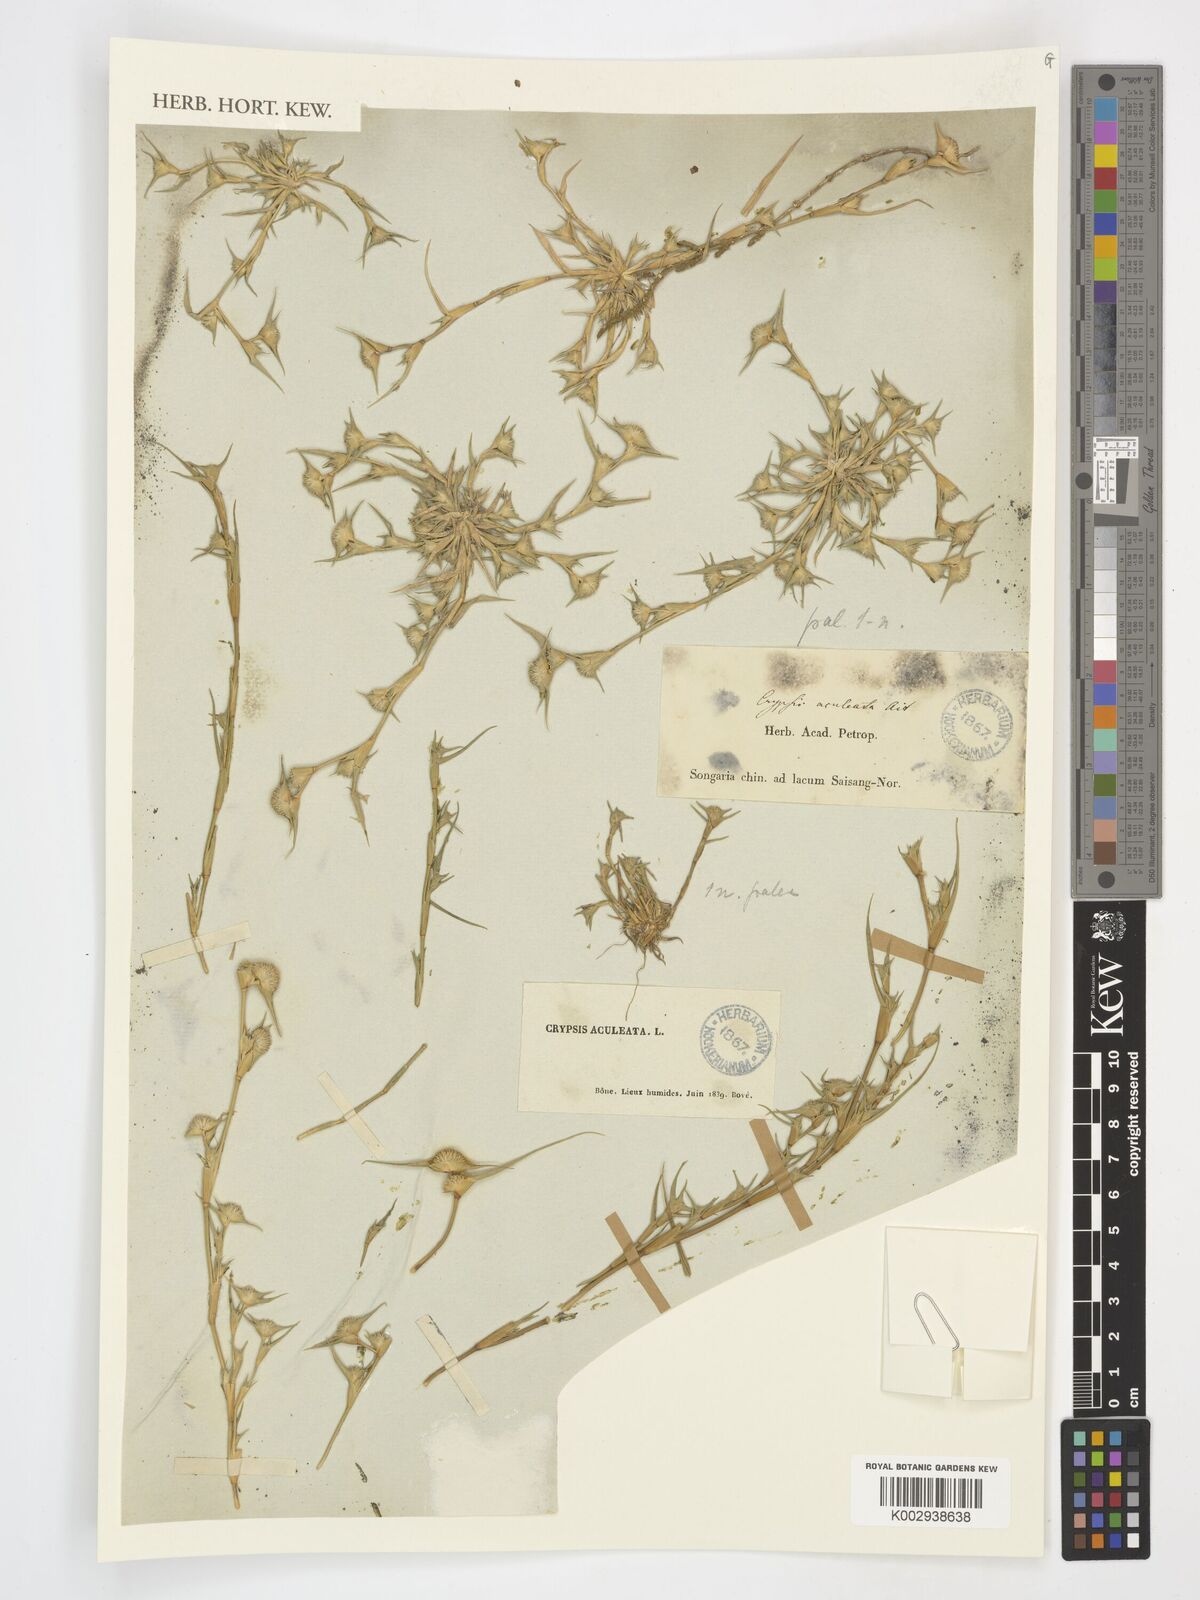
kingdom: Plantae
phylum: Tracheophyta
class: Liliopsida
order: Poales
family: Poaceae
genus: Sporobolus
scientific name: Sporobolus aculeatus
